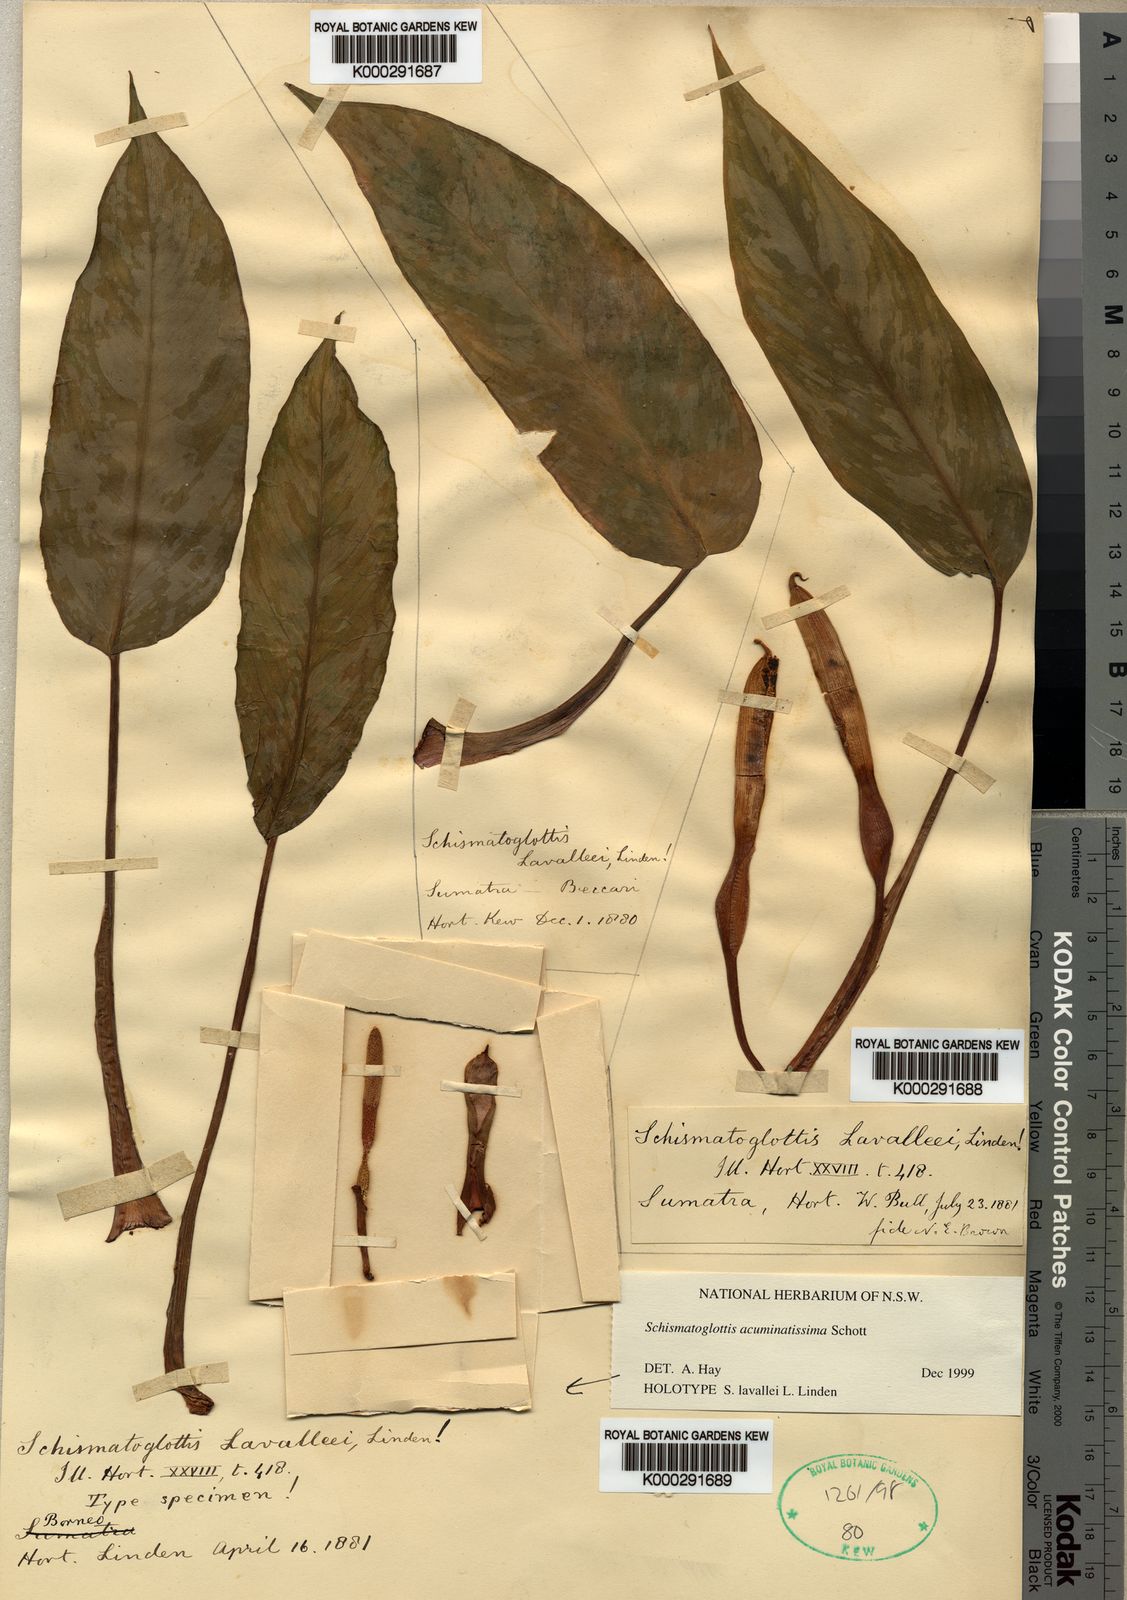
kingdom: Plantae
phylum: Tracheophyta
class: Liliopsida
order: Alismatales
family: Araceae
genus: Apoballis
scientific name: Apoballis acuminatissima
